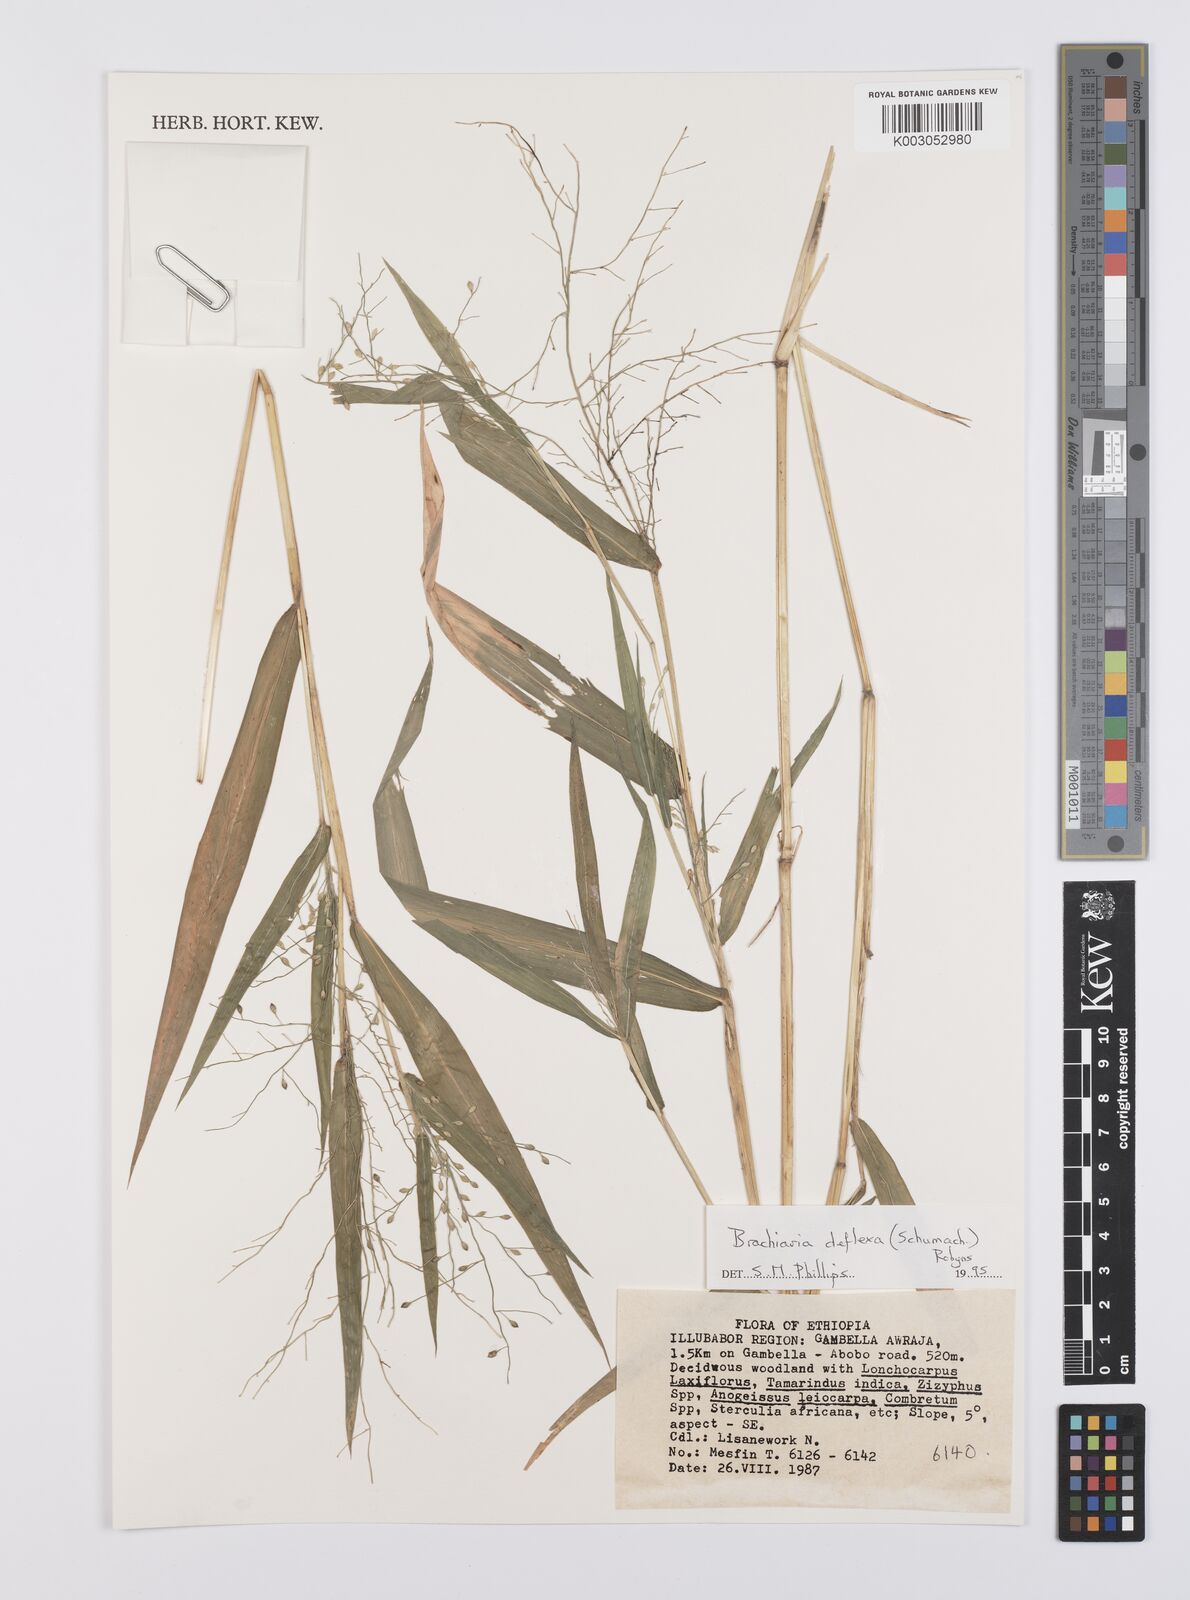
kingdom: Plantae
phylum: Tracheophyta
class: Liliopsida
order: Poales
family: Poaceae
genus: Urochloa
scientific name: Urochloa deflexa
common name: Guinea millet
